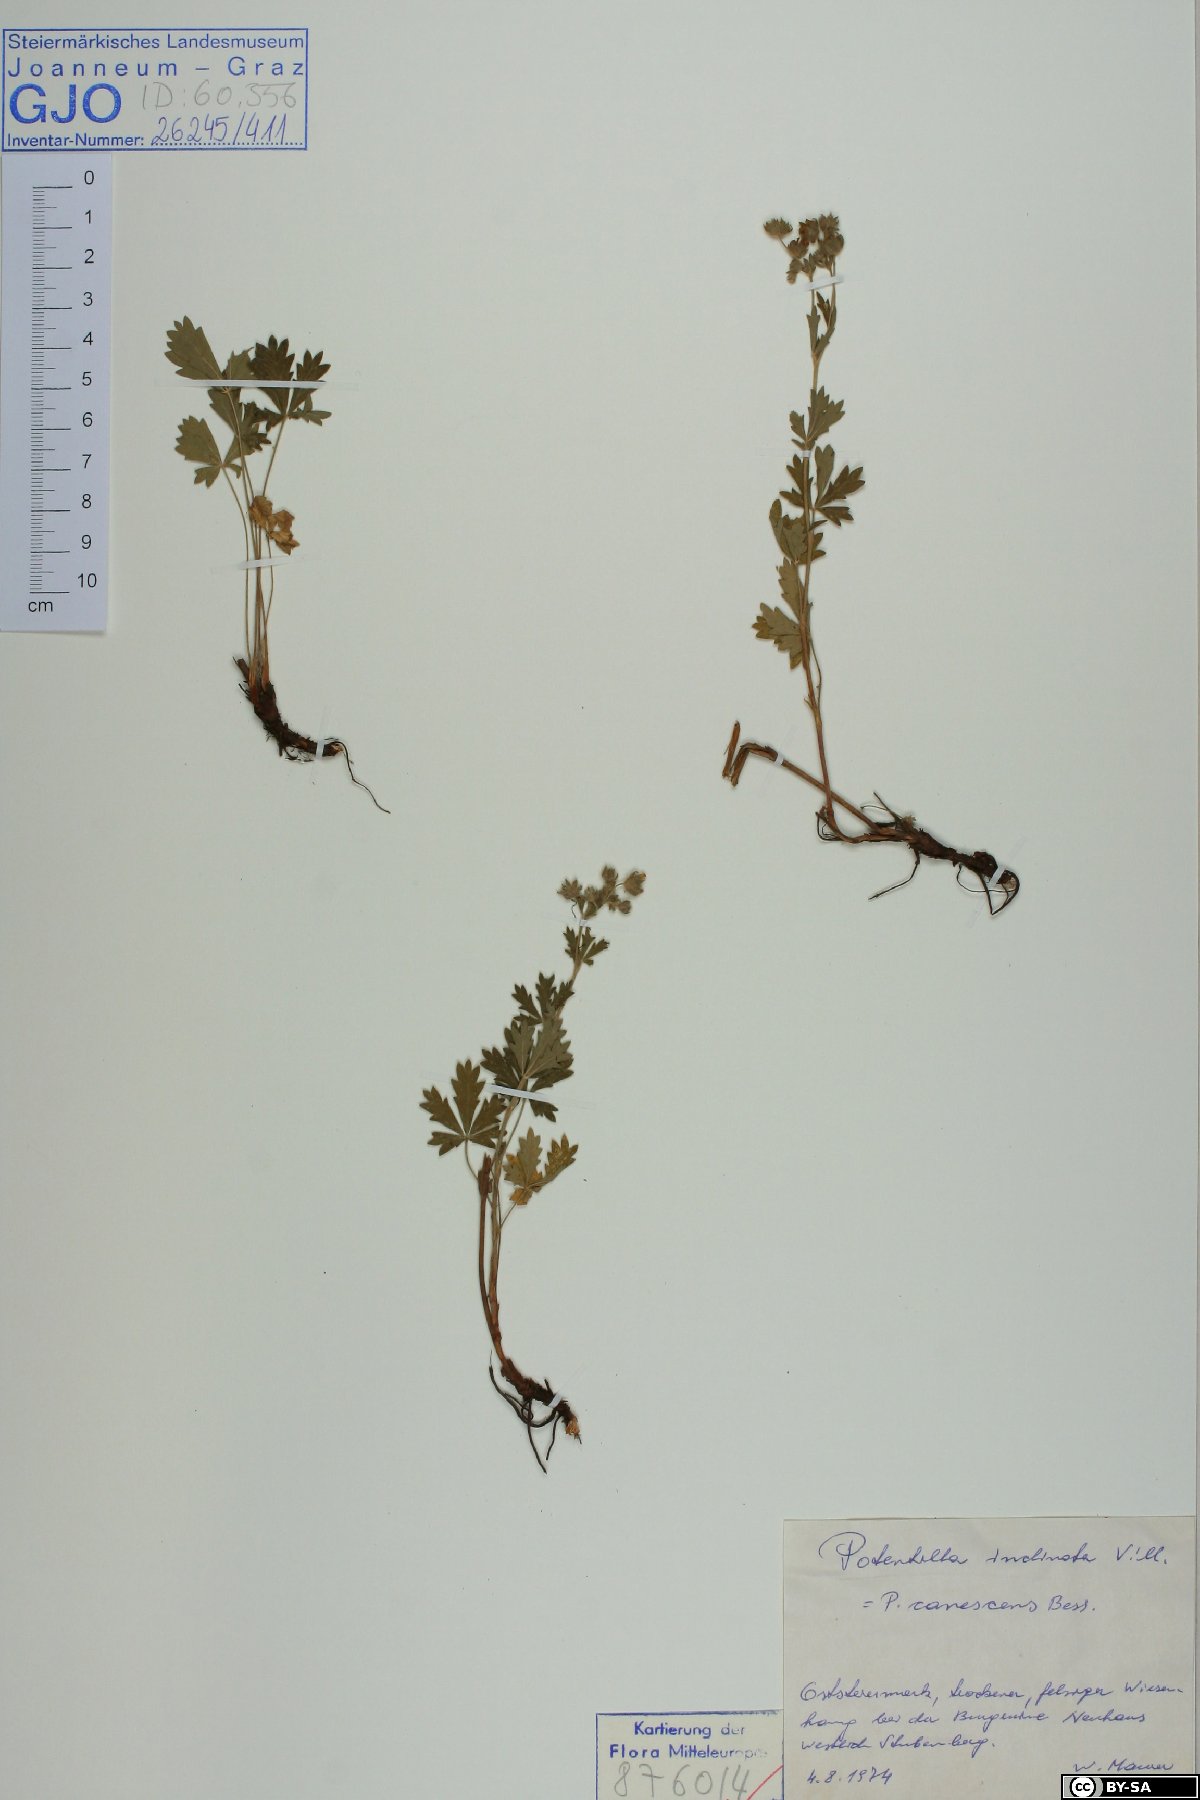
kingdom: Plantae
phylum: Tracheophyta
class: Magnoliopsida
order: Rosales
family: Rosaceae
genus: Potentilla
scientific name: Potentilla inclinata
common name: Grey cinquefoil
